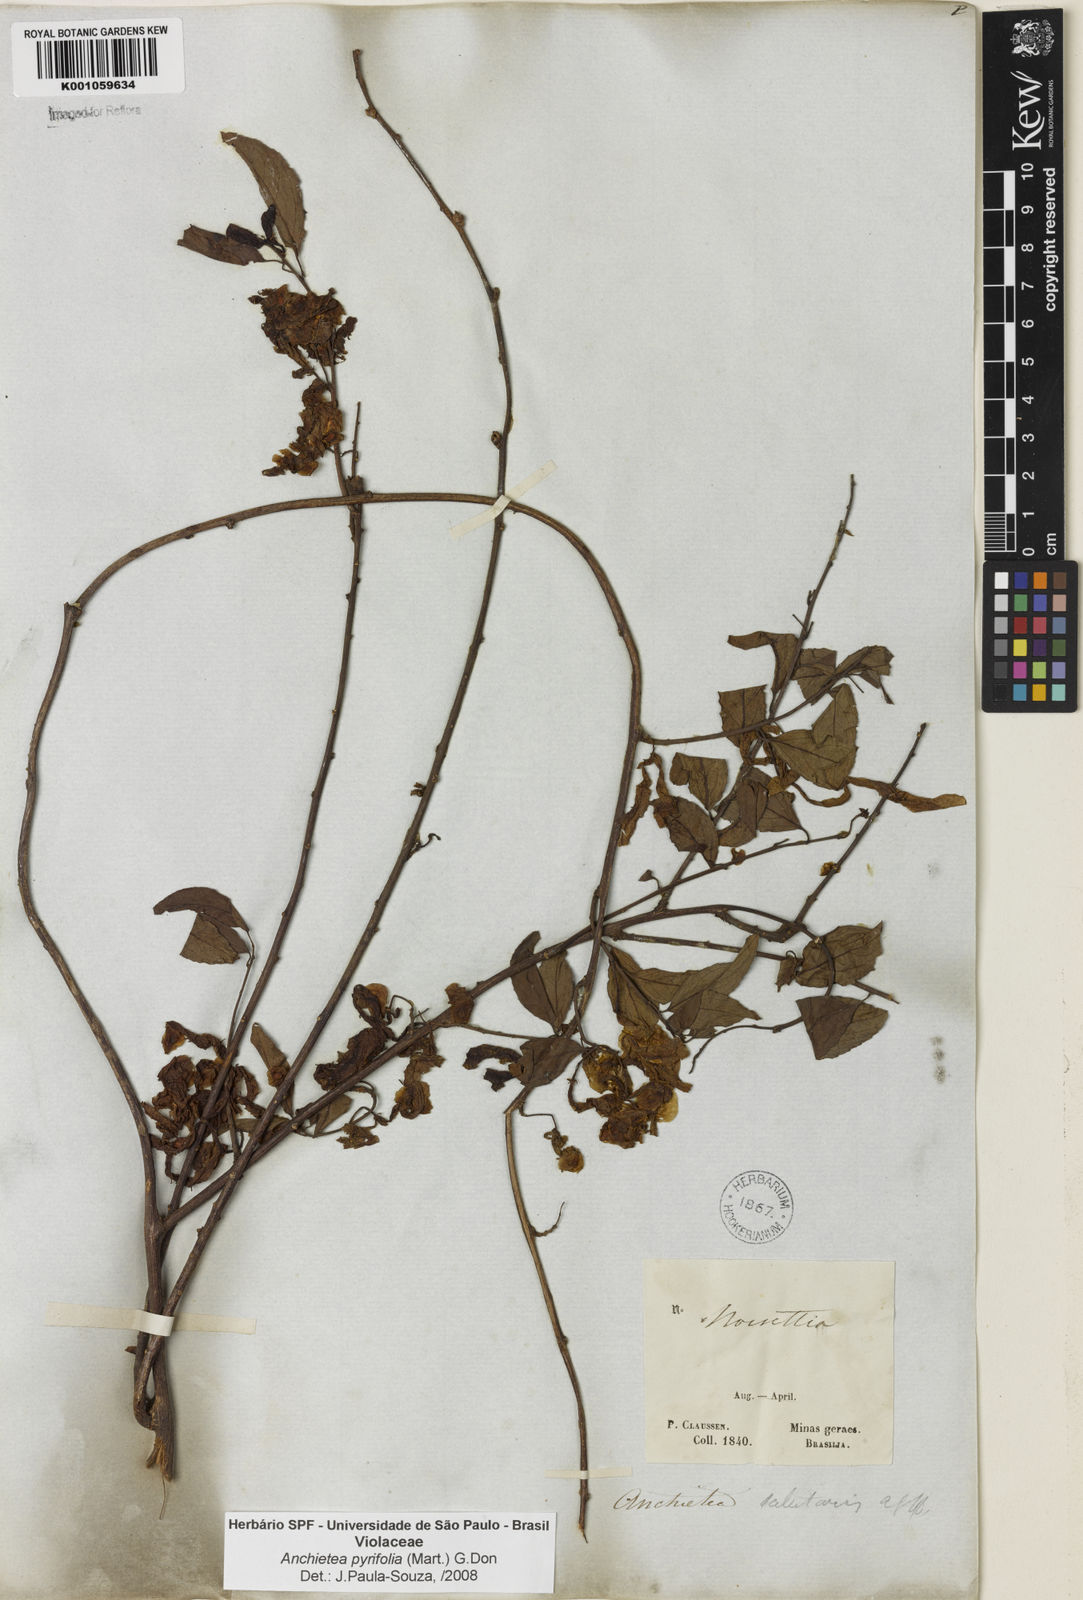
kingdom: Plantae
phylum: Tracheophyta
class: Magnoliopsida
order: Malpighiales
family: Violaceae
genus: Anchietea
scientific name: Anchietea pyrifolia
